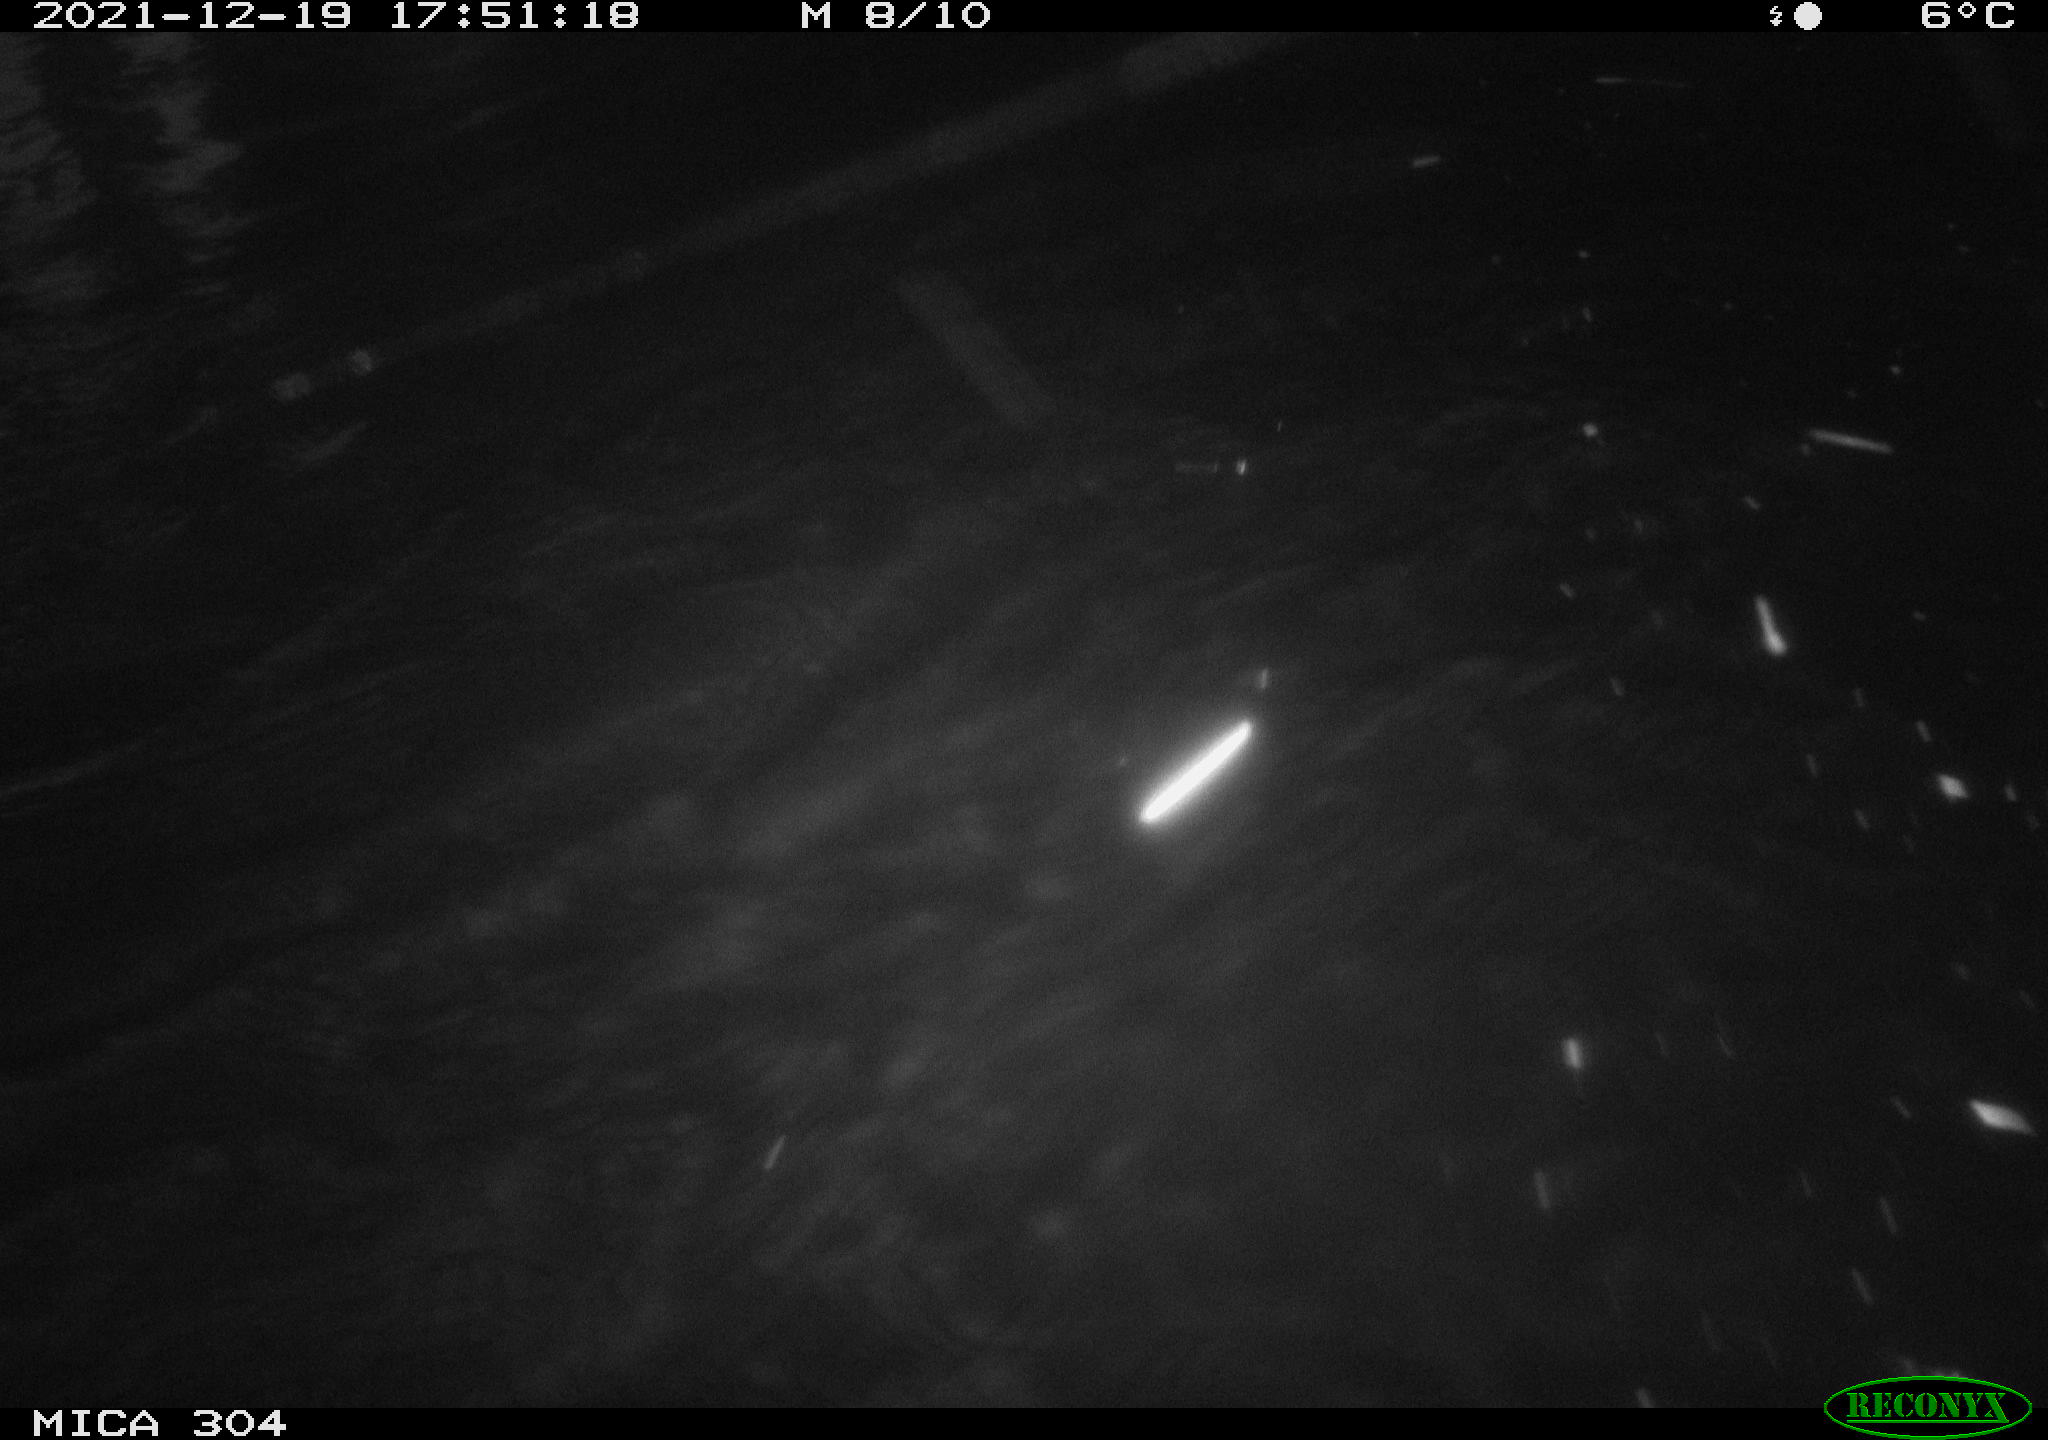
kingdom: Animalia
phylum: Chordata
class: Aves
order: Anseriformes
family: Anatidae
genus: Anas
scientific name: Anas platyrhynchos
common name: Mallard
